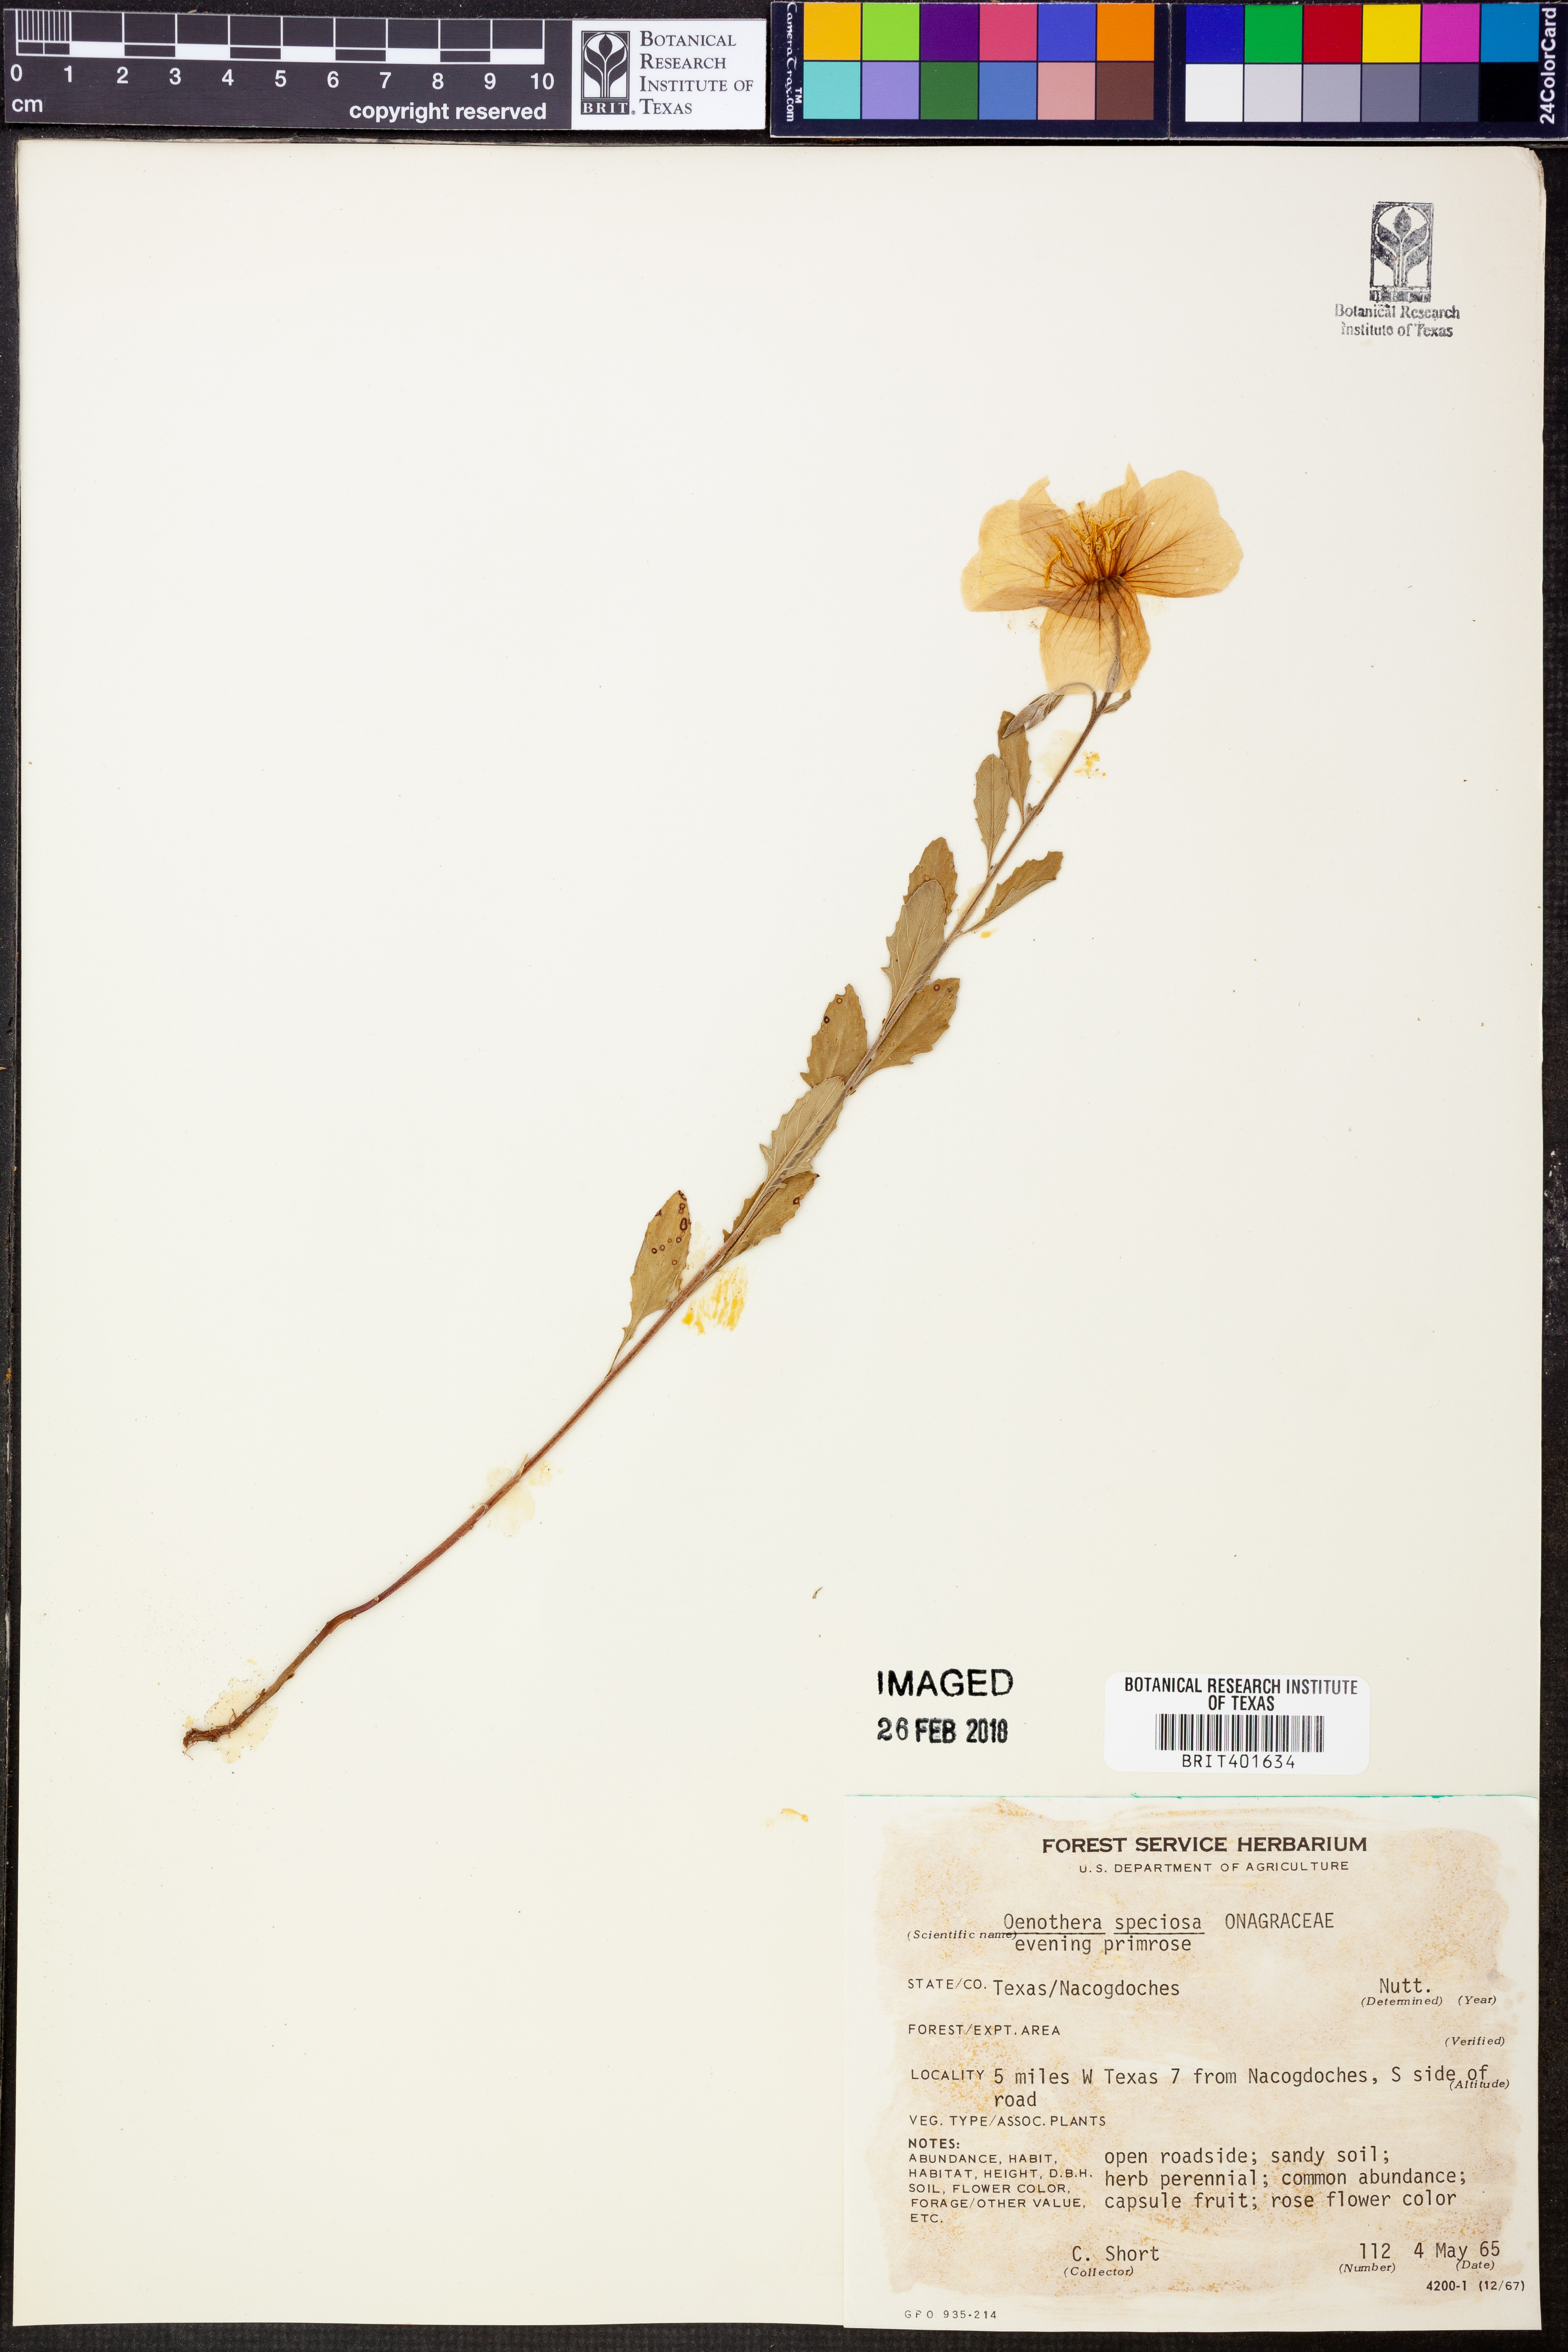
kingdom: Plantae
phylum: Tracheophyta
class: Magnoliopsida
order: Myrtales
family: Onagraceae
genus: Oenothera
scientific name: Oenothera speciosa
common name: White evening-primrose
